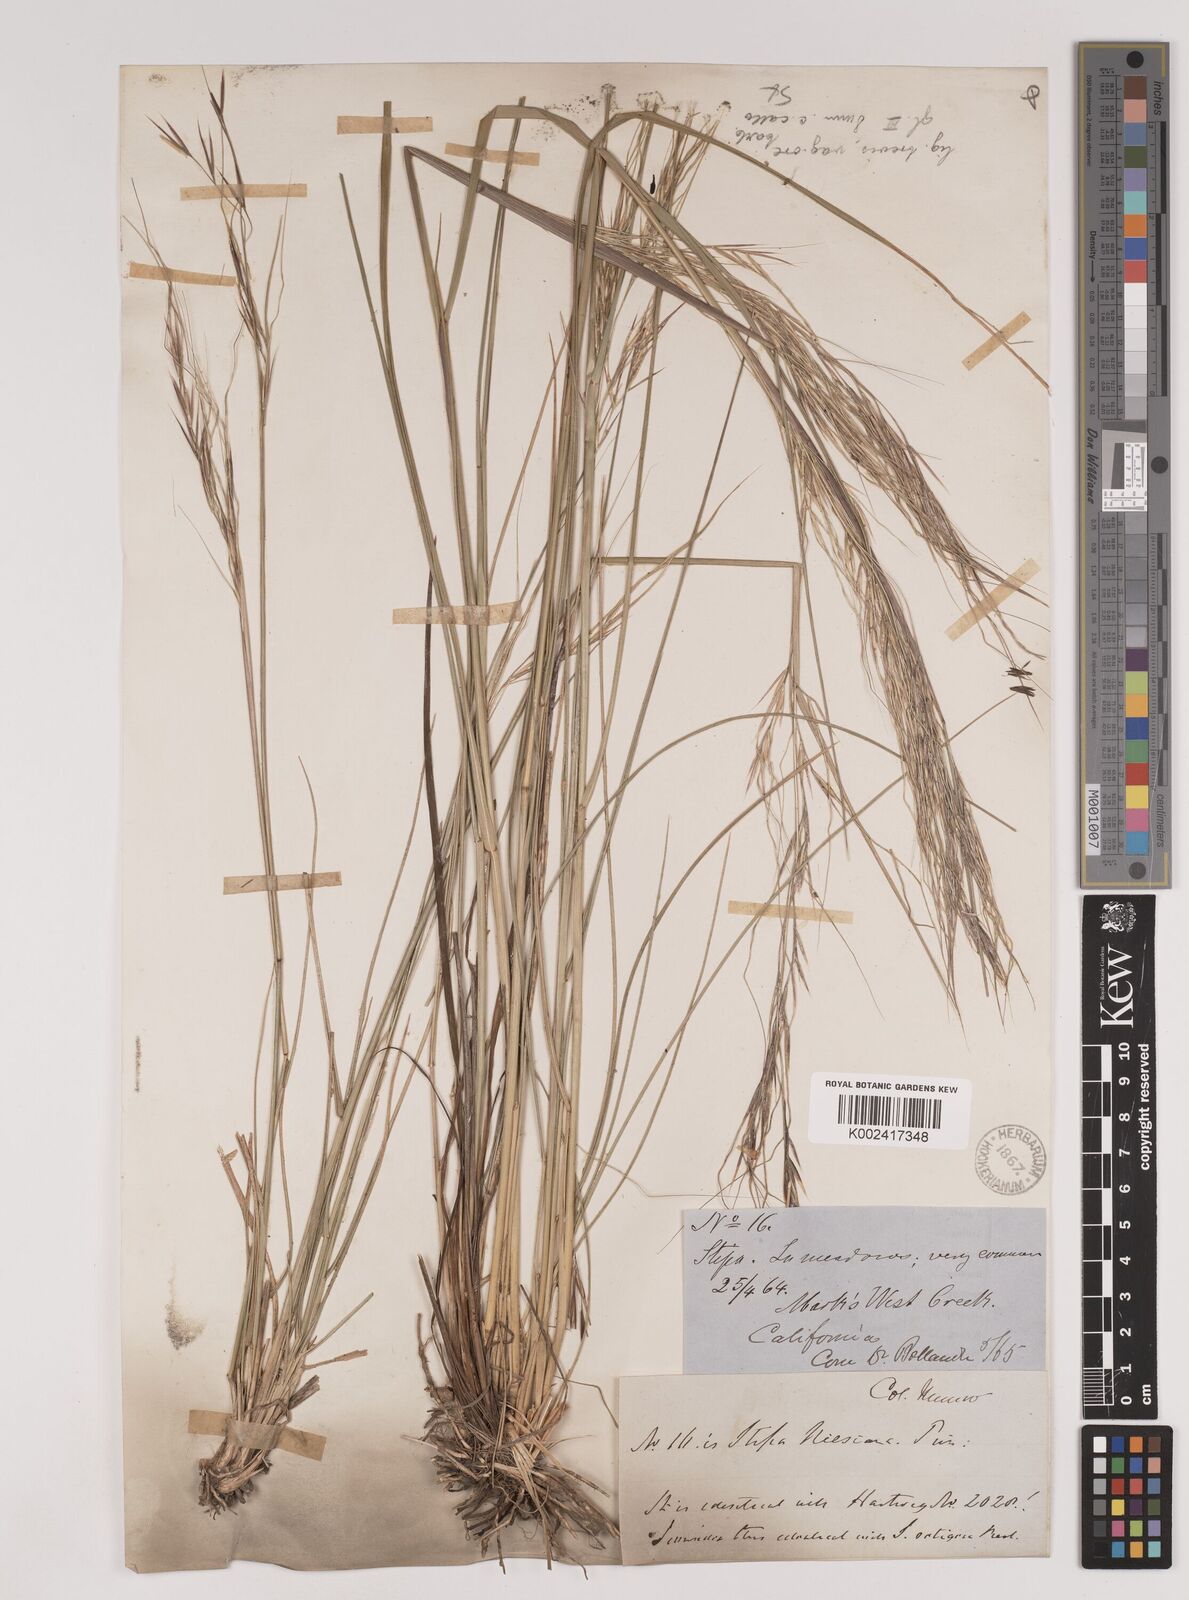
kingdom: Plantae
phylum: Tracheophyta
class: Liliopsida
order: Poales
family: Poaceae
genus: Nassella
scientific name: Nassella pulchra
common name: Purple needlegrass
